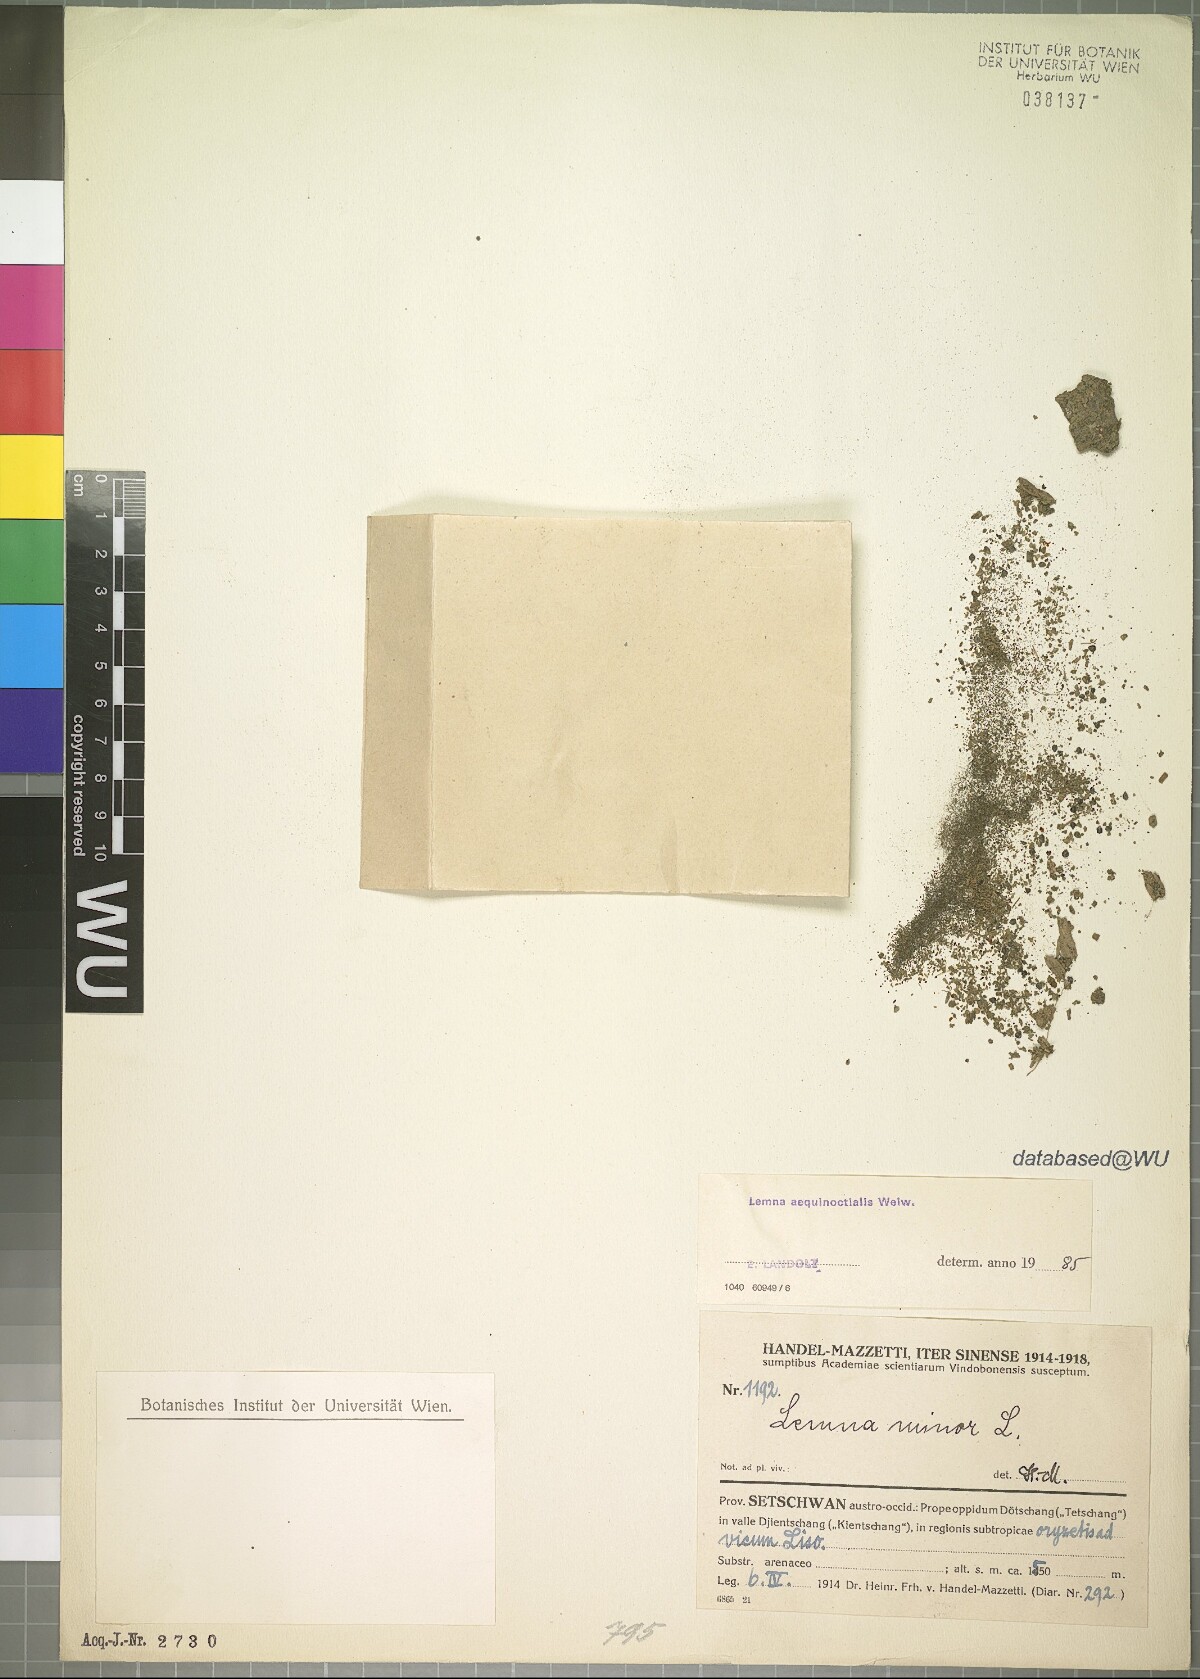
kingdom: Plantae
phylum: Tracheophyta
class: Liliopsida
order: Alismatales
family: Araceae
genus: Lemna
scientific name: Lemna aequinoctialis
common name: Duckweed
